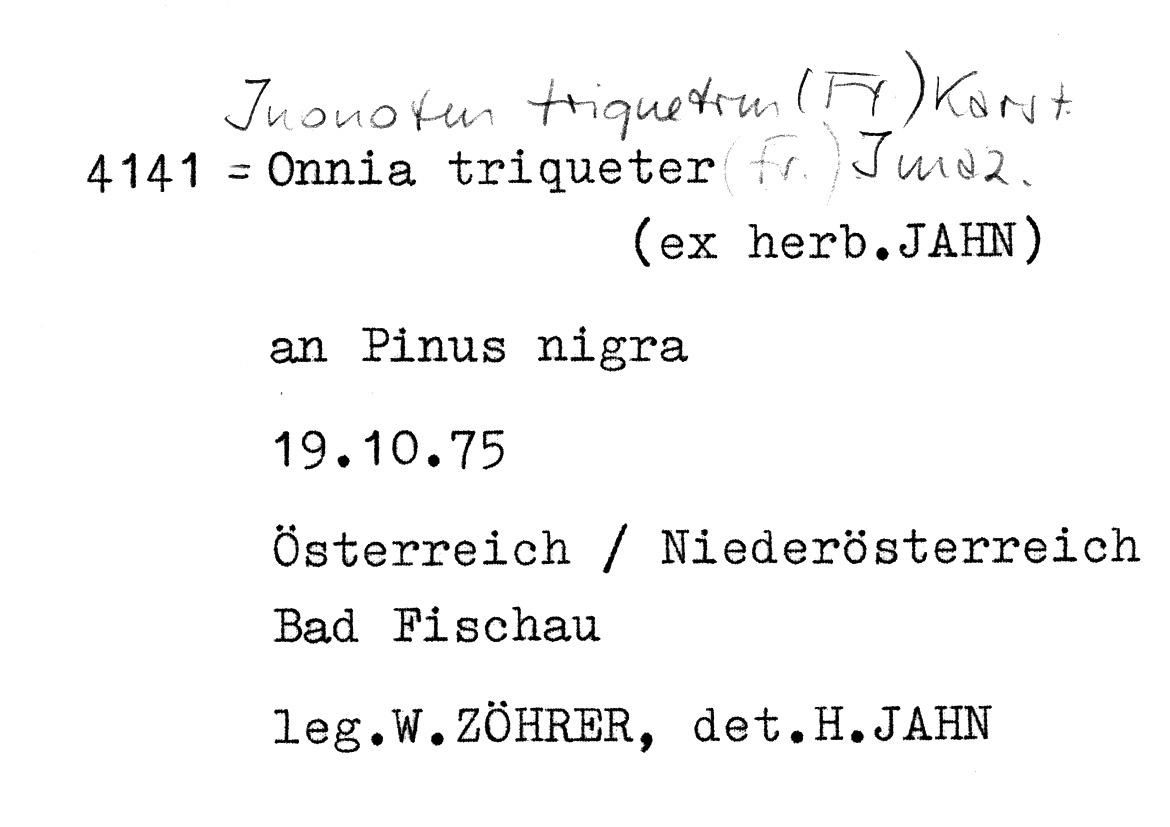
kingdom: Fungi
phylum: Basidiomycota
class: Agaricomycetes
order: Hymenochaetales
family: Hymenochaetaceae
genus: Inonotus
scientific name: Inonotus cuticularis
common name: Clustered bracket
